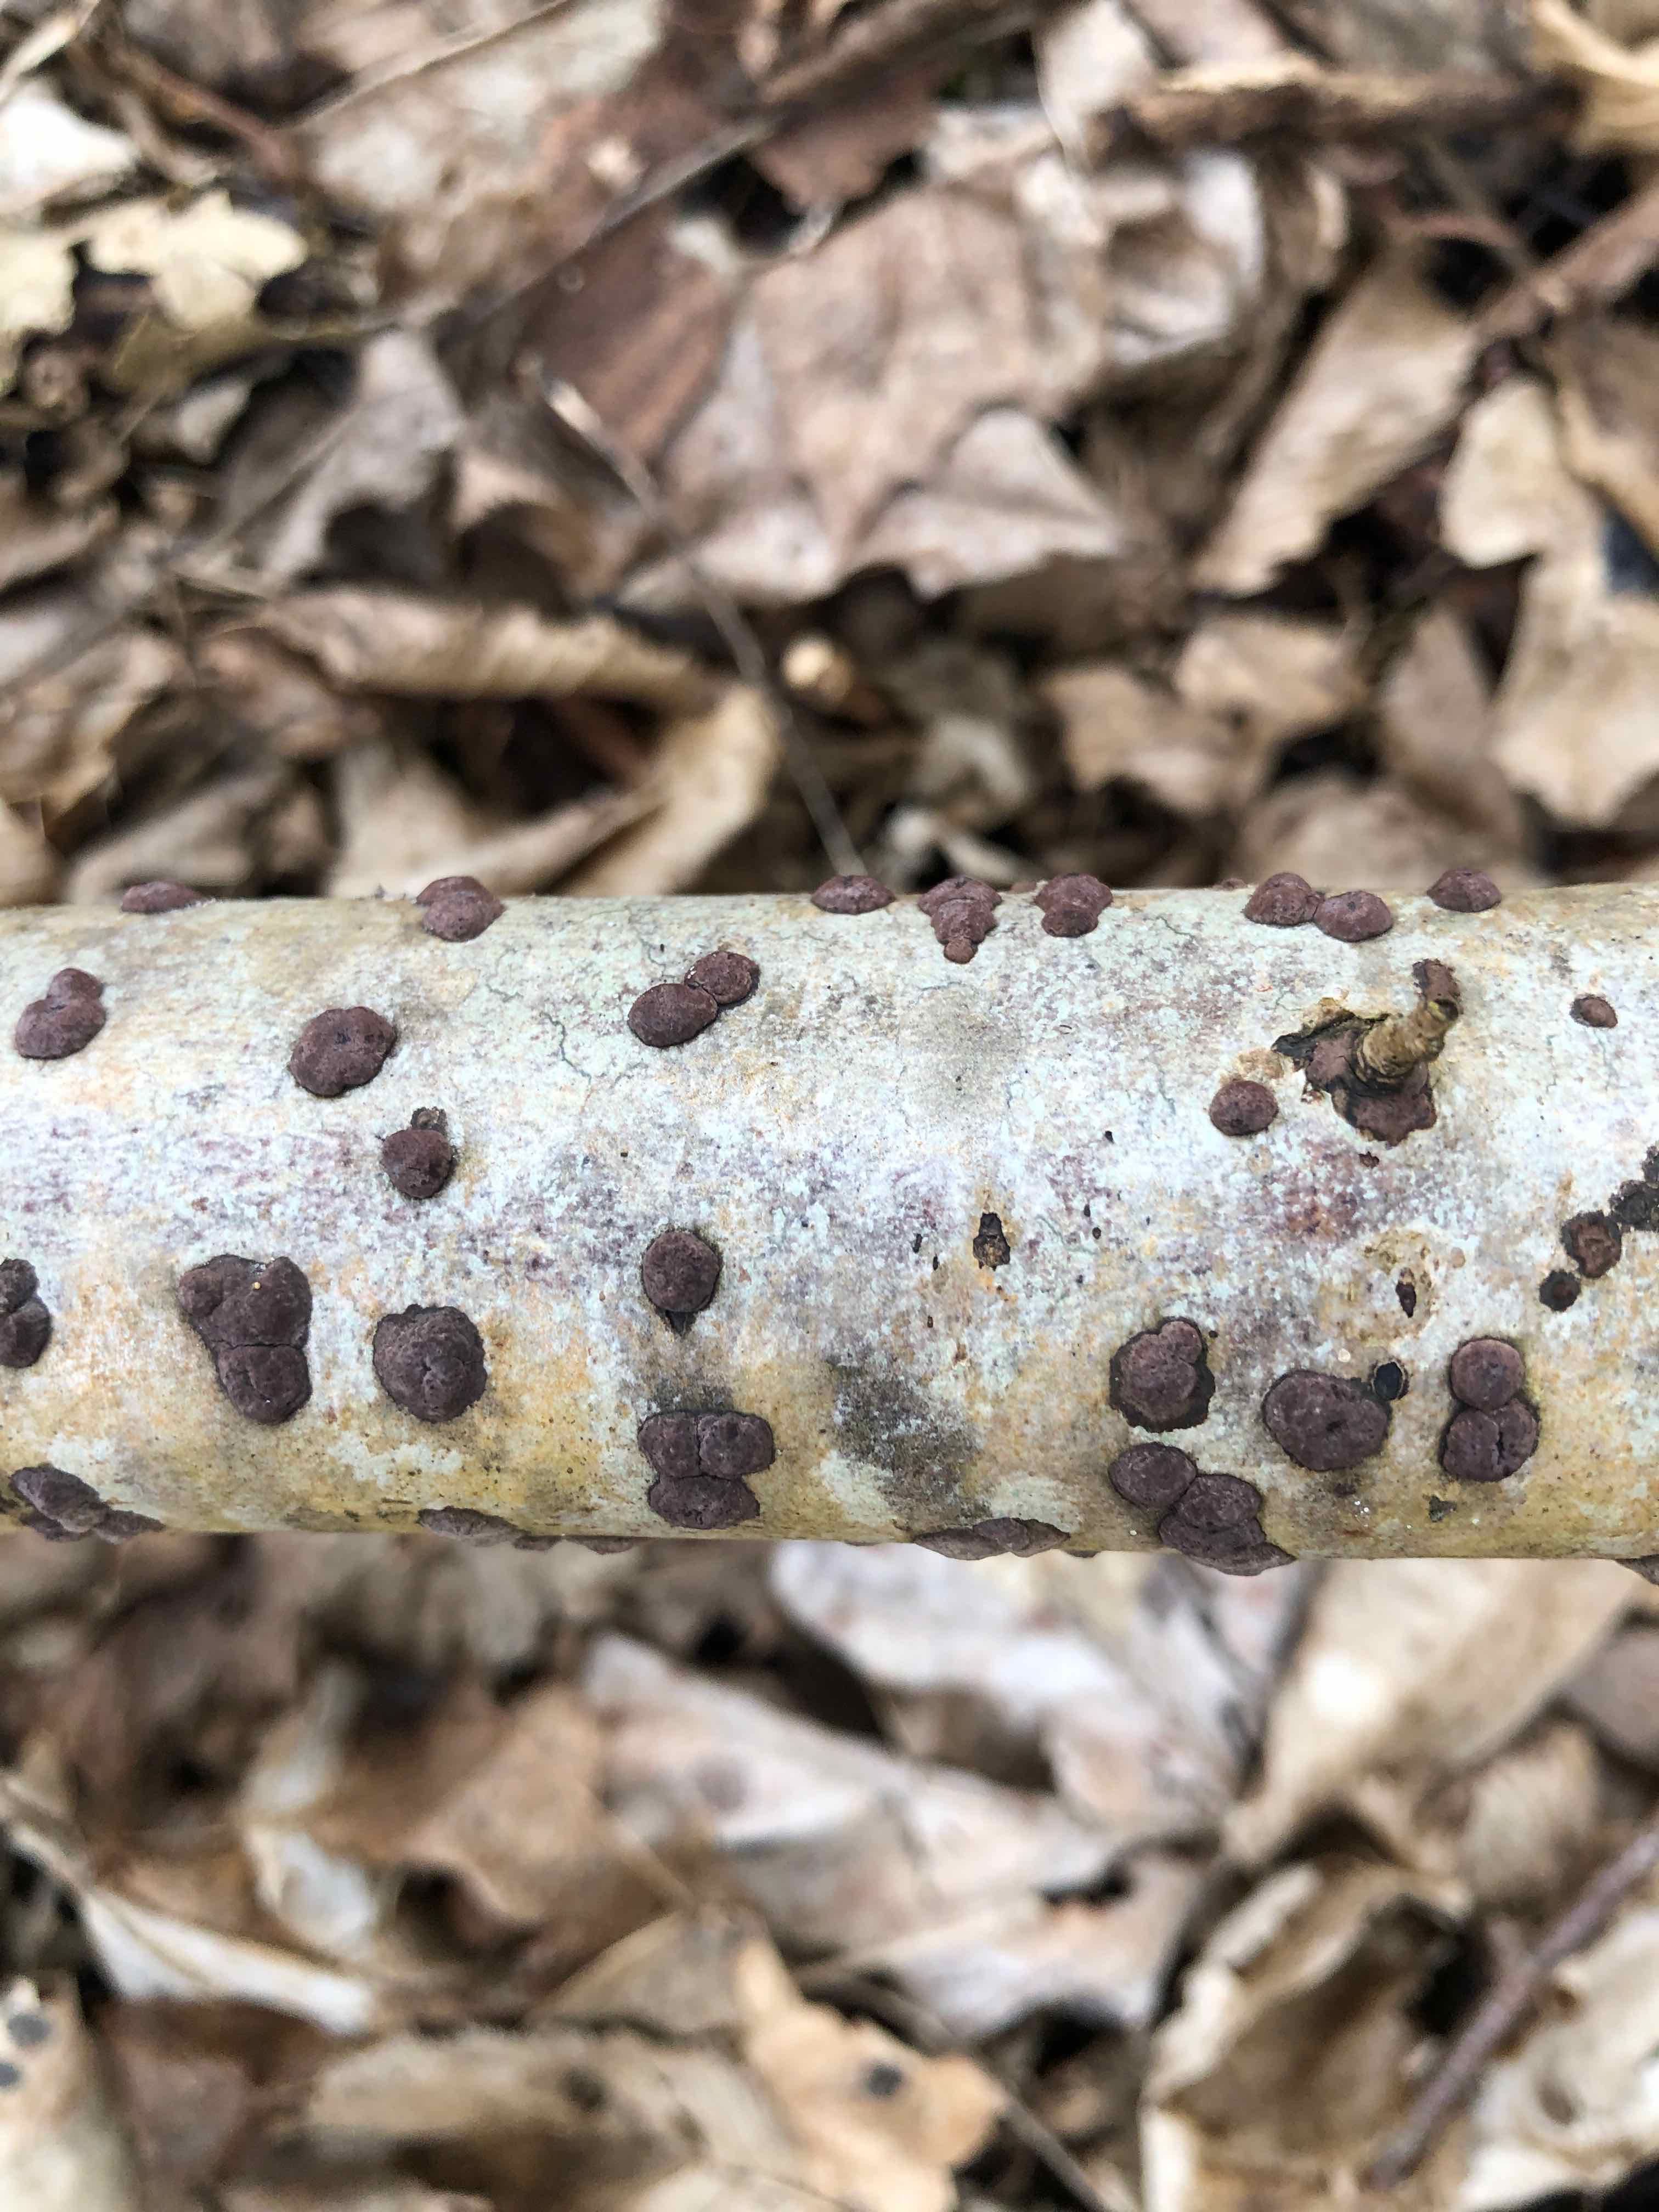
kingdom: Fungi
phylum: Ascomycota
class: Sordariomycetes
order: Xylariales
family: Hypoxylaceae
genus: Hypoxylon
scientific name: Hypoxylon fuscum
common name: kegleformet kulbær
